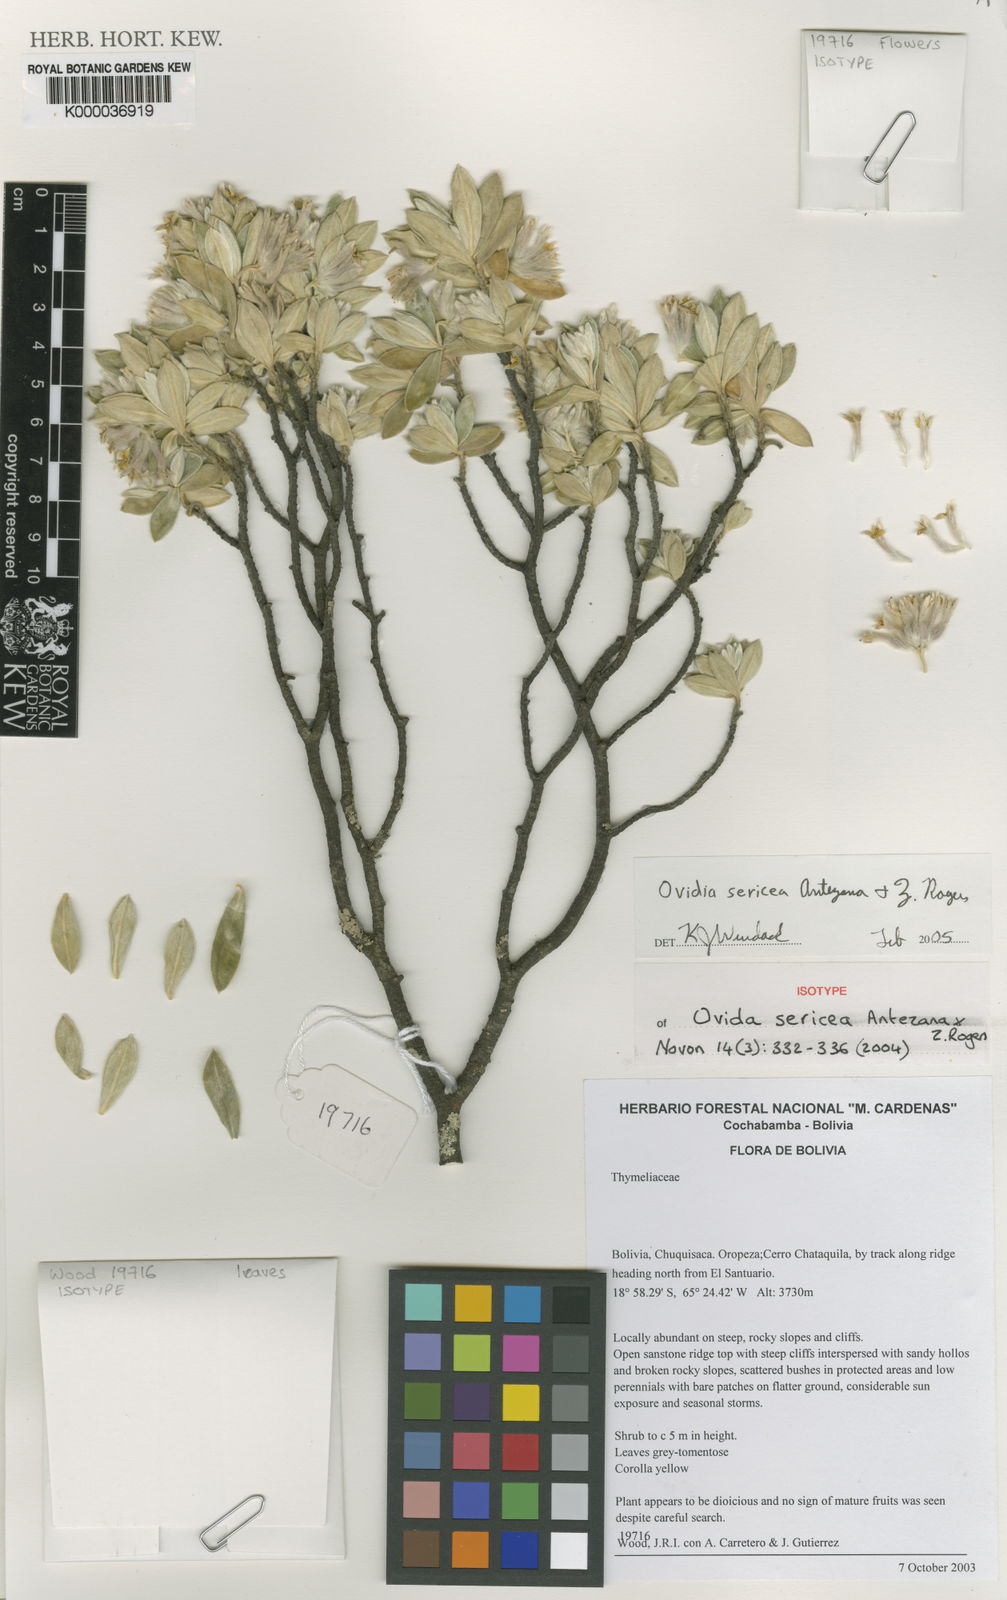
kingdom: Plantae
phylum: Tracheophyta
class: Magnoliopsida
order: Malvales
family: Thymelaeaceae
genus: Ovidia
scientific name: Ovidia sericea
